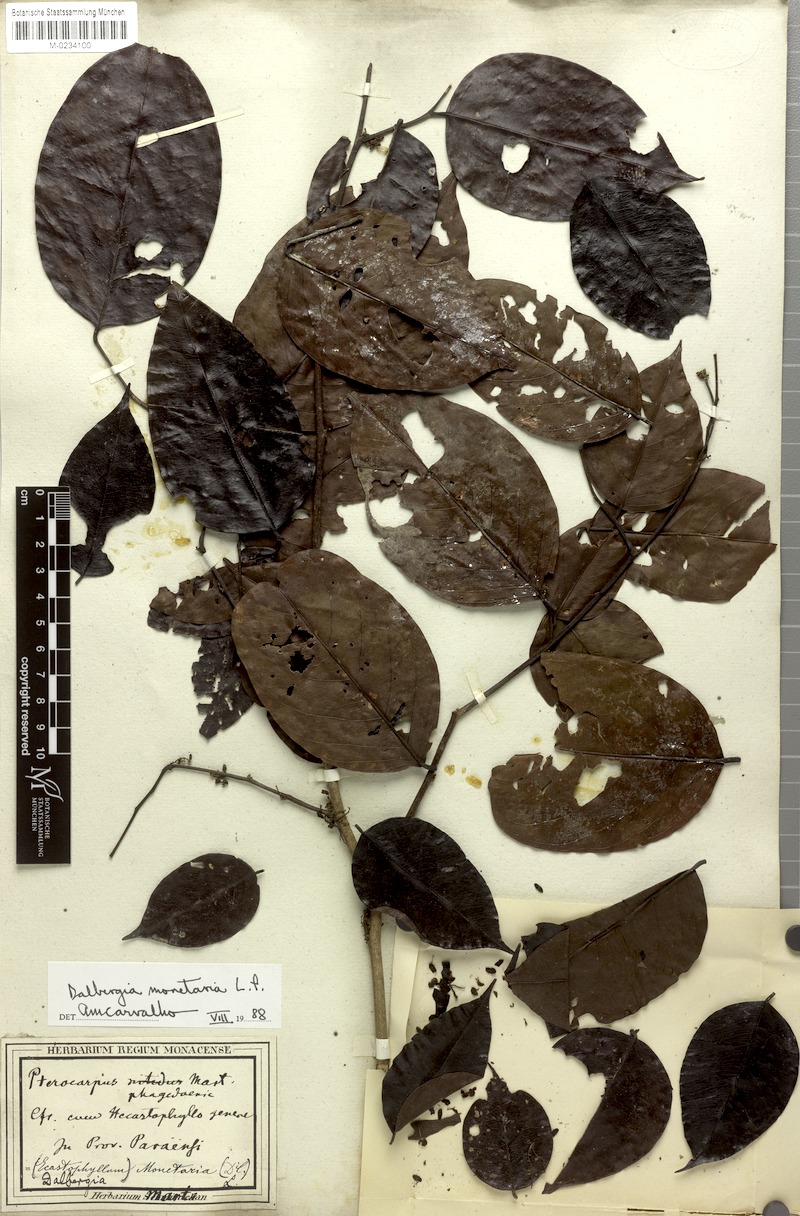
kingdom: Plantae
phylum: Tracheophyta
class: Magnoliopsida
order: Fabales
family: Fabaceae
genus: Dalbergia
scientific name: Dalbergia ovalis
